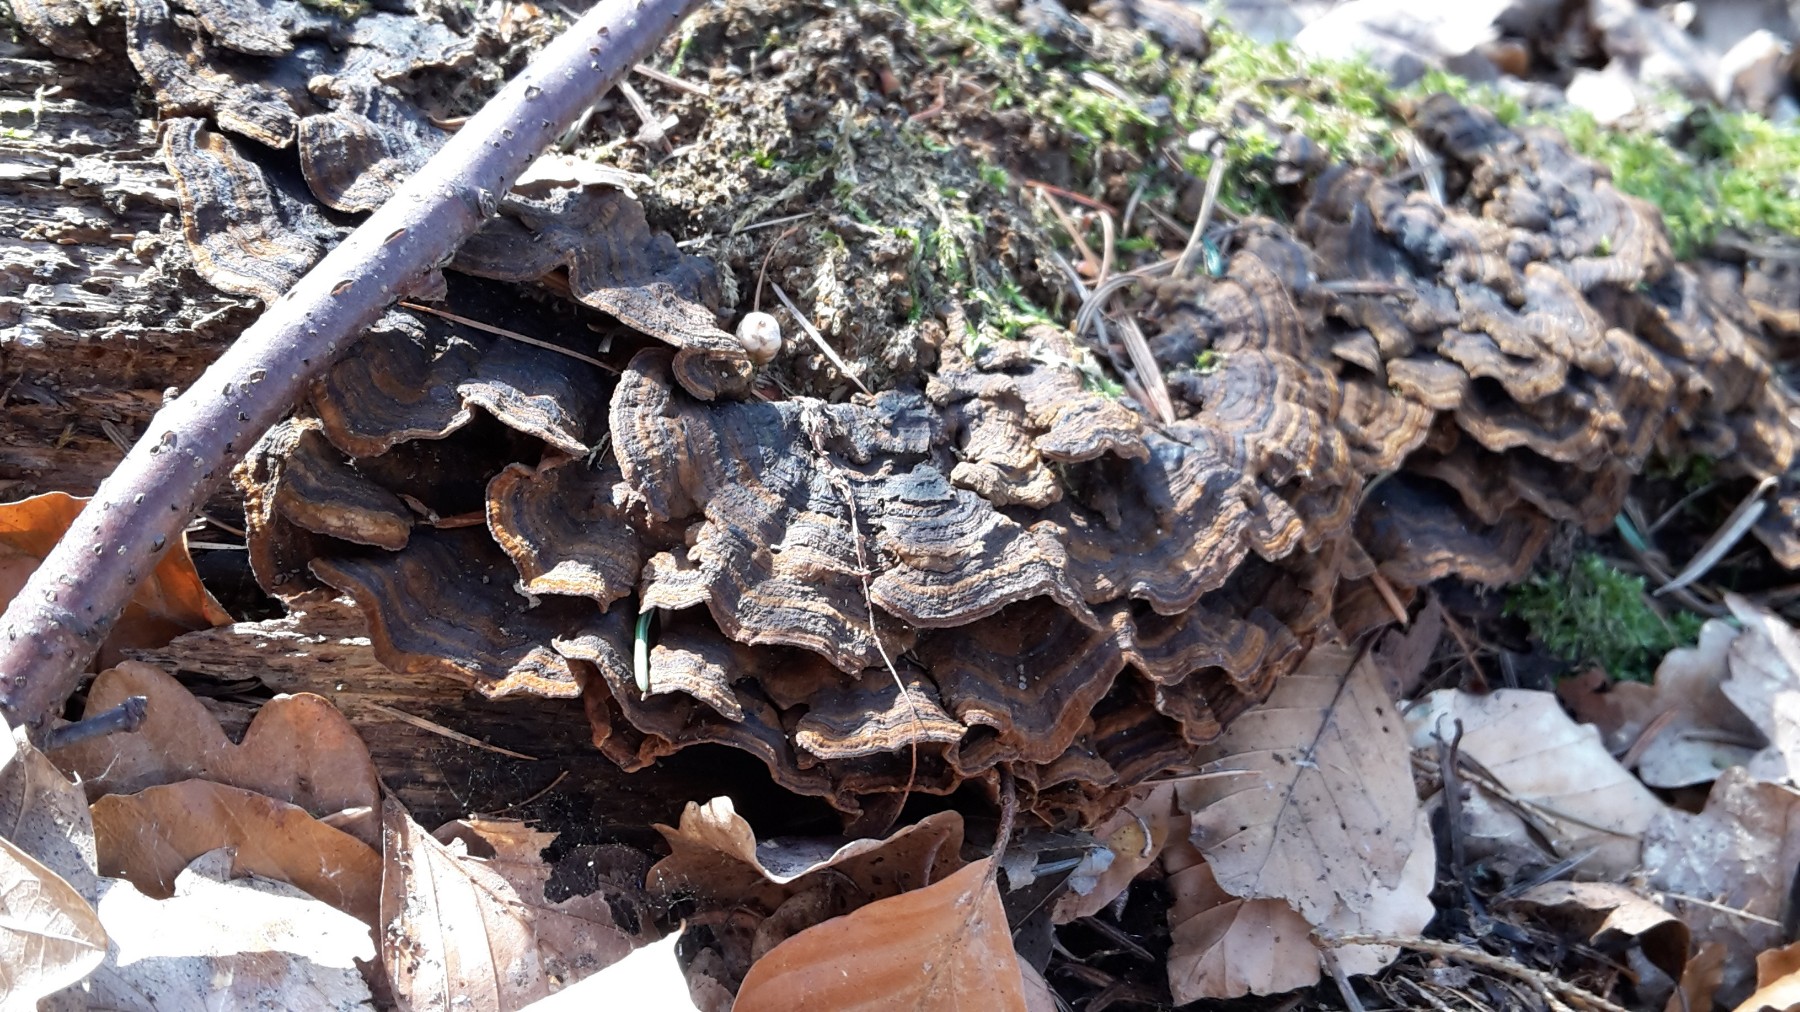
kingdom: Fungi
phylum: Basidiomycota
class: Agaricomycetes
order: Hymenochaetales
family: Hymenochaetaceae
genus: Hymenochaete
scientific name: Hymenochaete rubiginosa
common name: stiv ruslædersvamp
